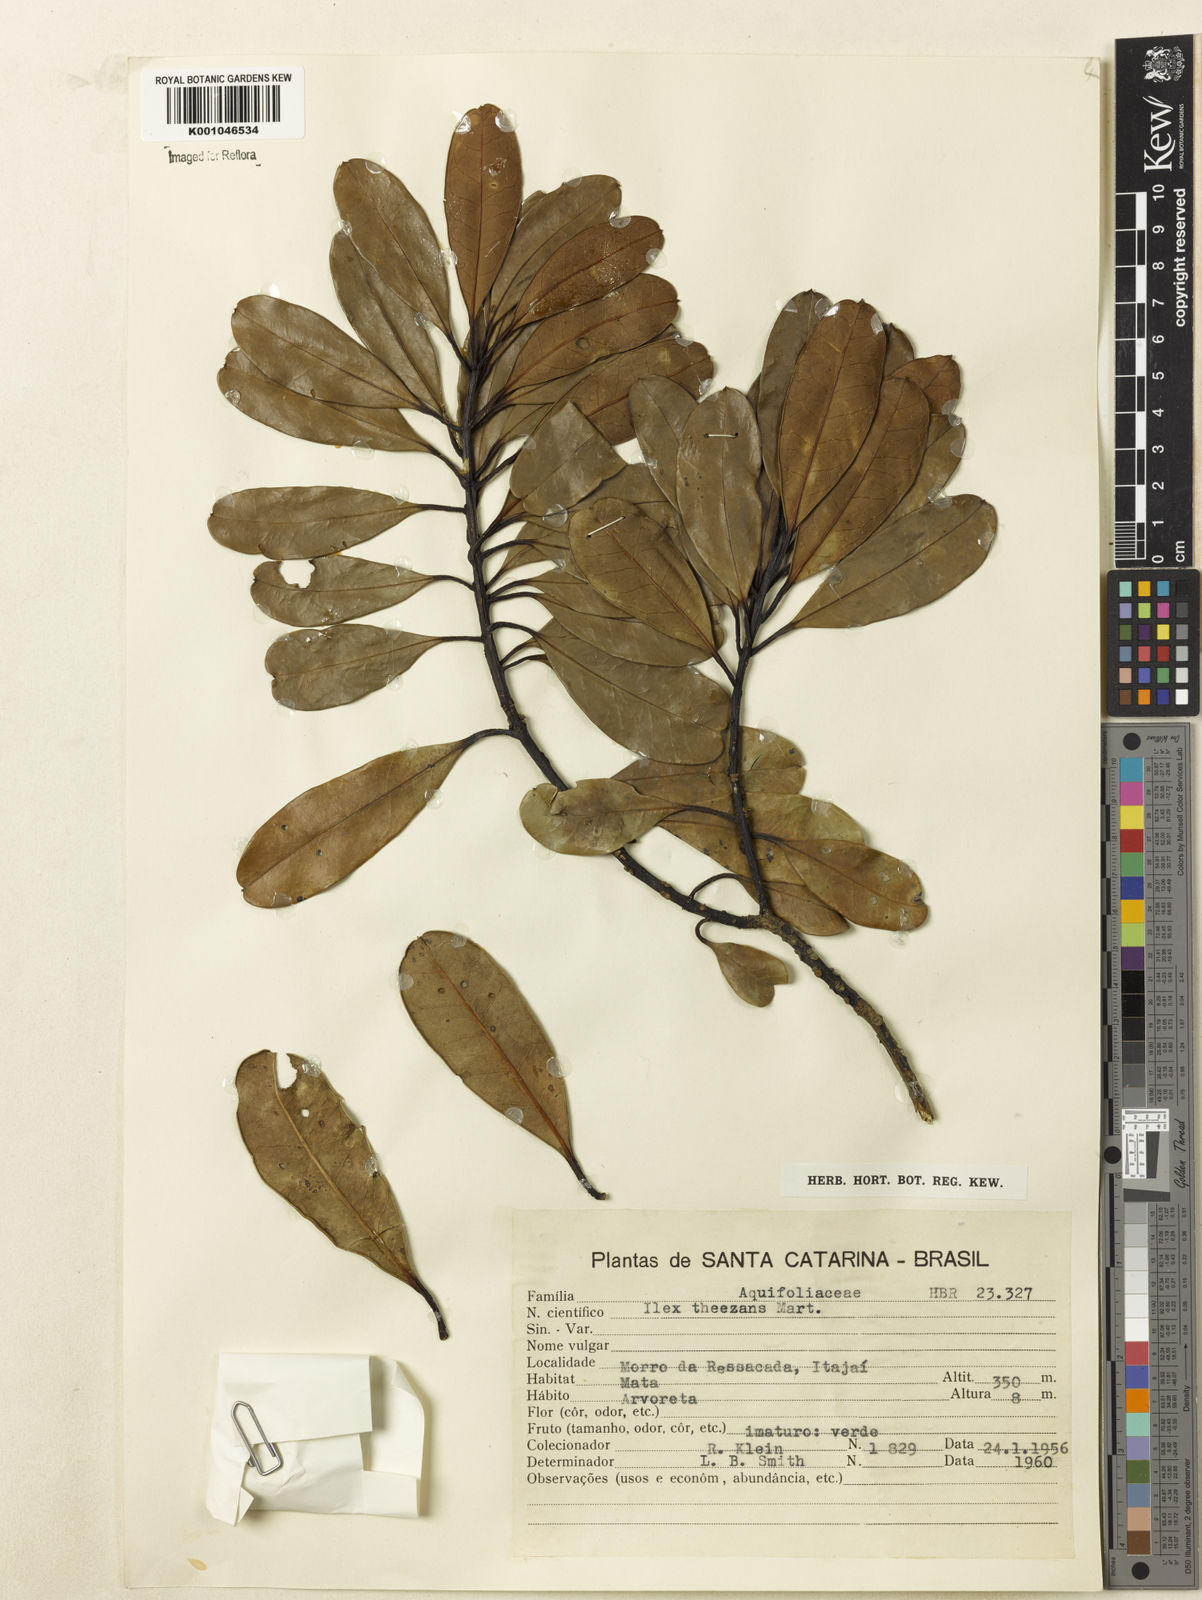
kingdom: Plantae
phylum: Tracheophyta
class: Magnoliopsida
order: Aquifoliales
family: Aquifoliaceae
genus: Ilex
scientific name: Ilex theezans
